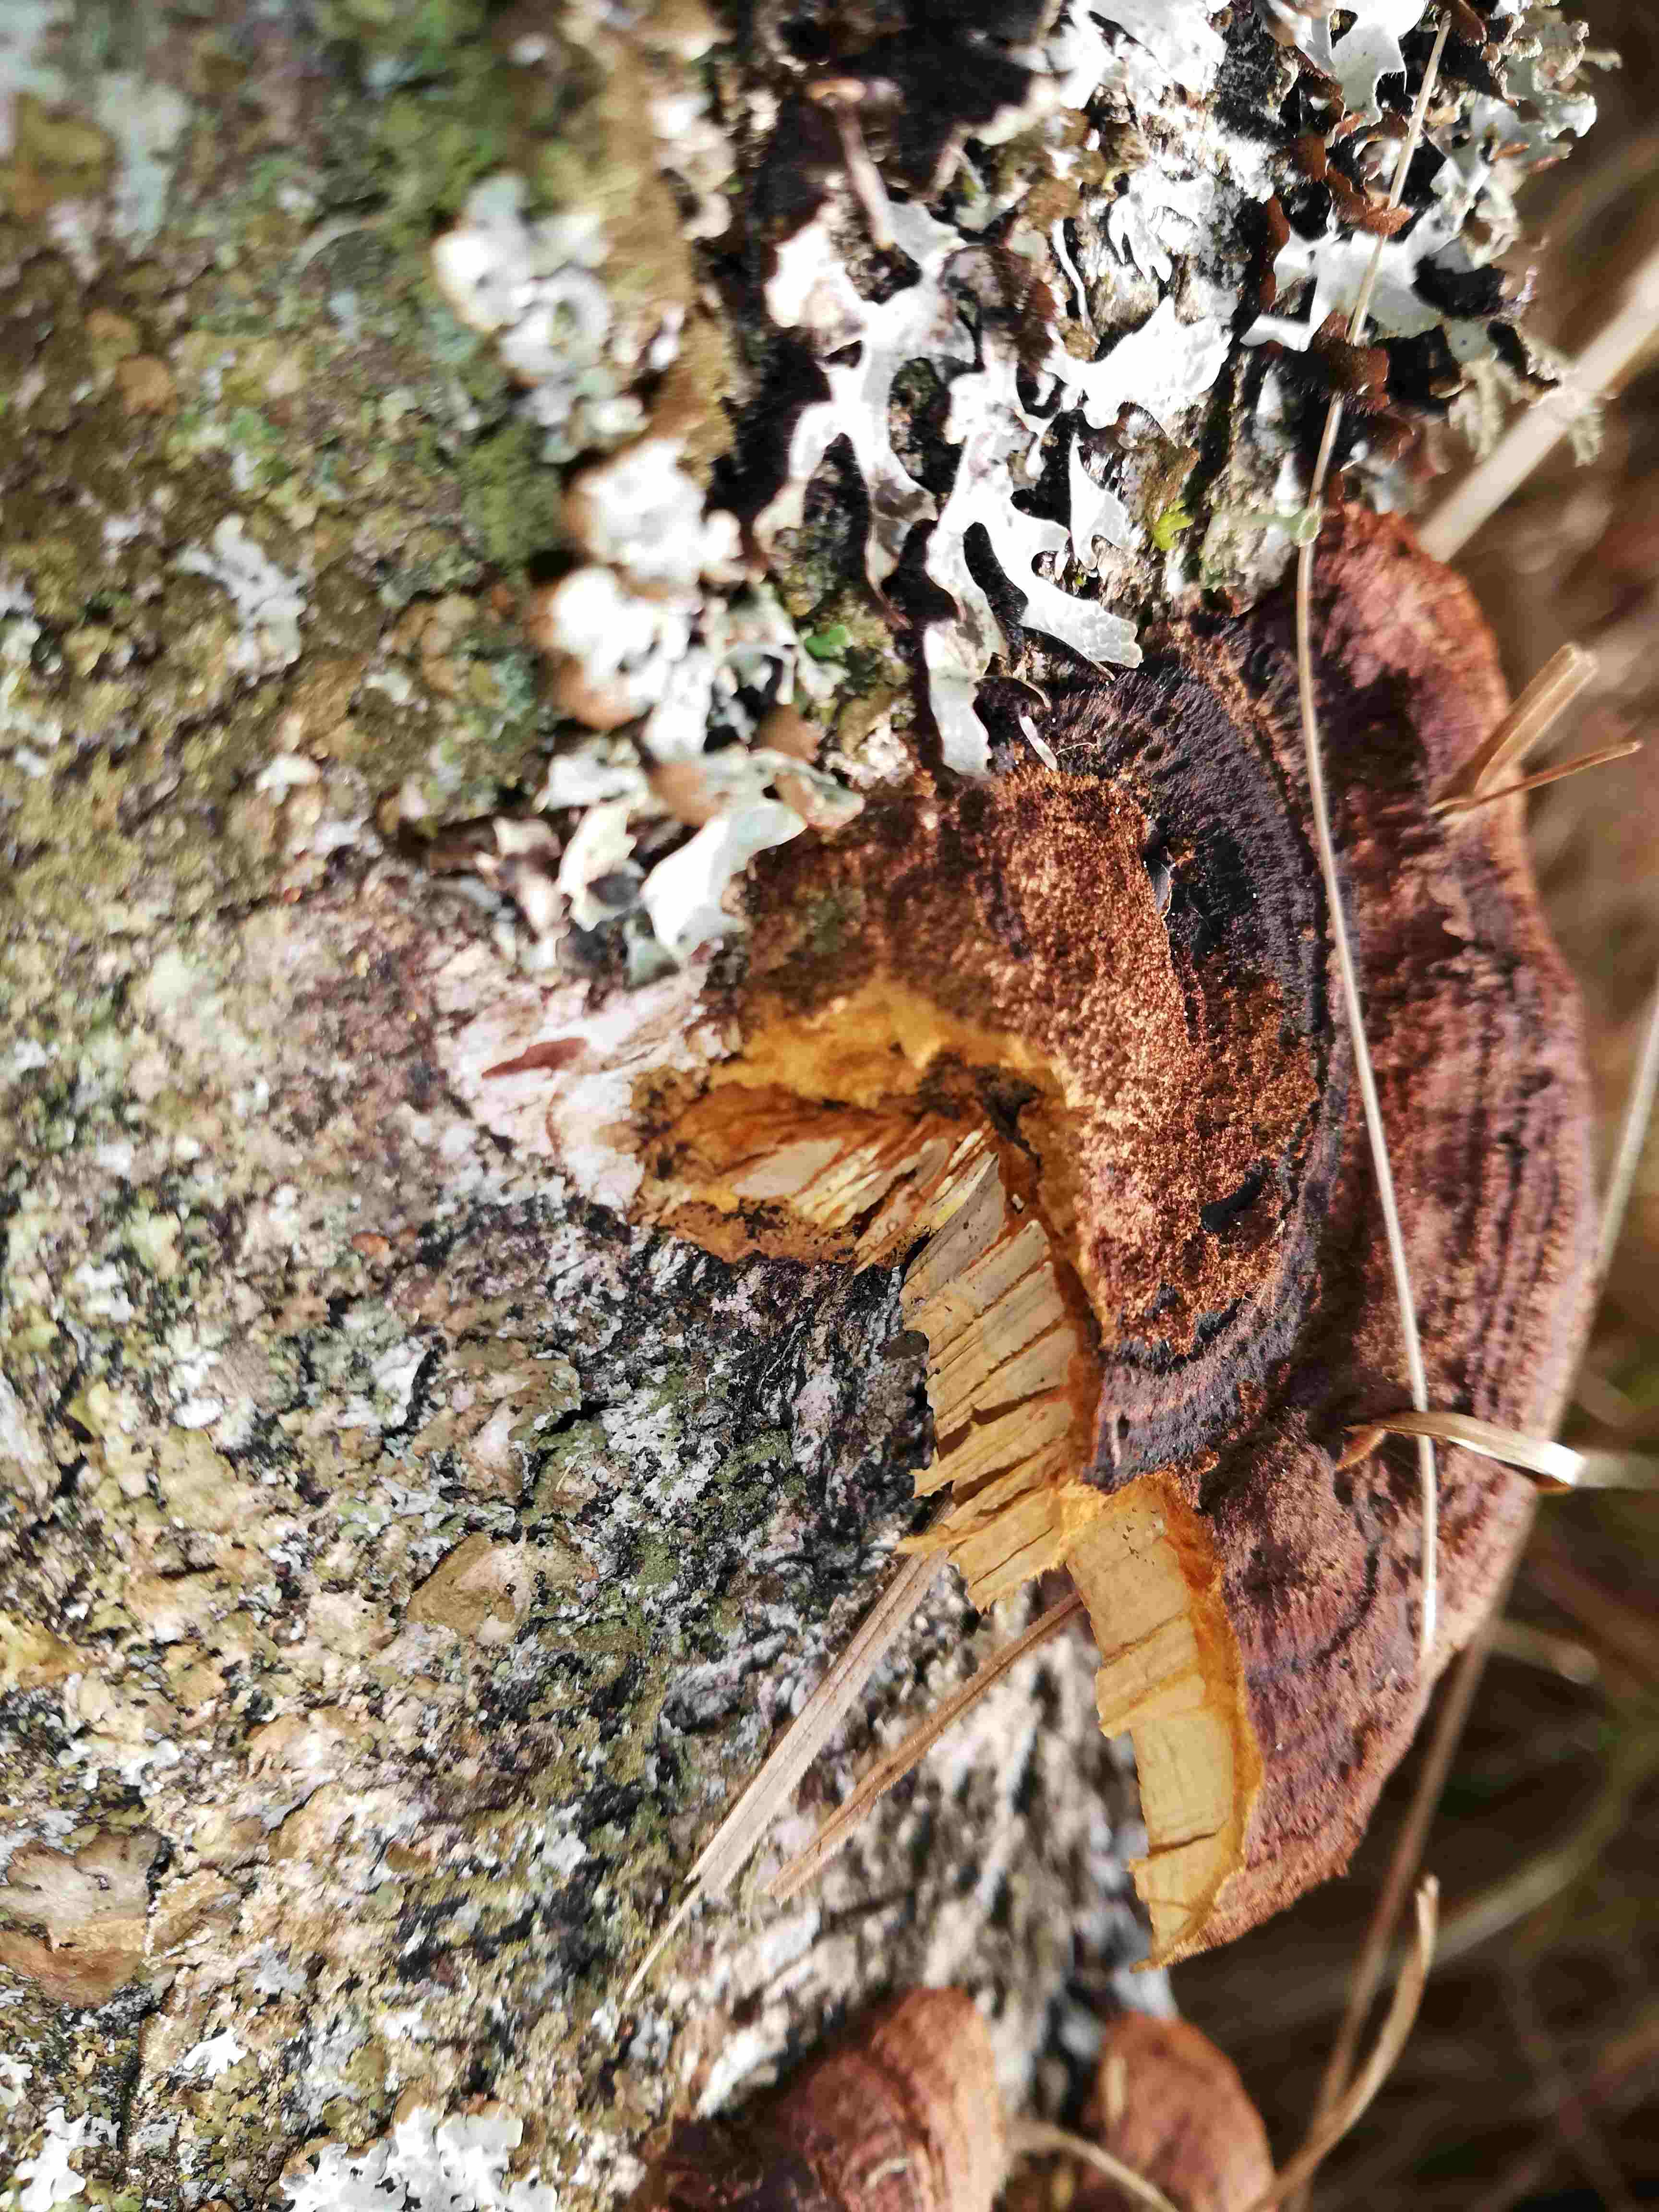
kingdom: Fungi
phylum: Basidiomycota
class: Agaricomycetes
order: Gloeophyllales
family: Gloeophyllaceae
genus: Gloeophyllum
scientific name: Gloeophyllum sepiarium
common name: fyrre-korkhat
